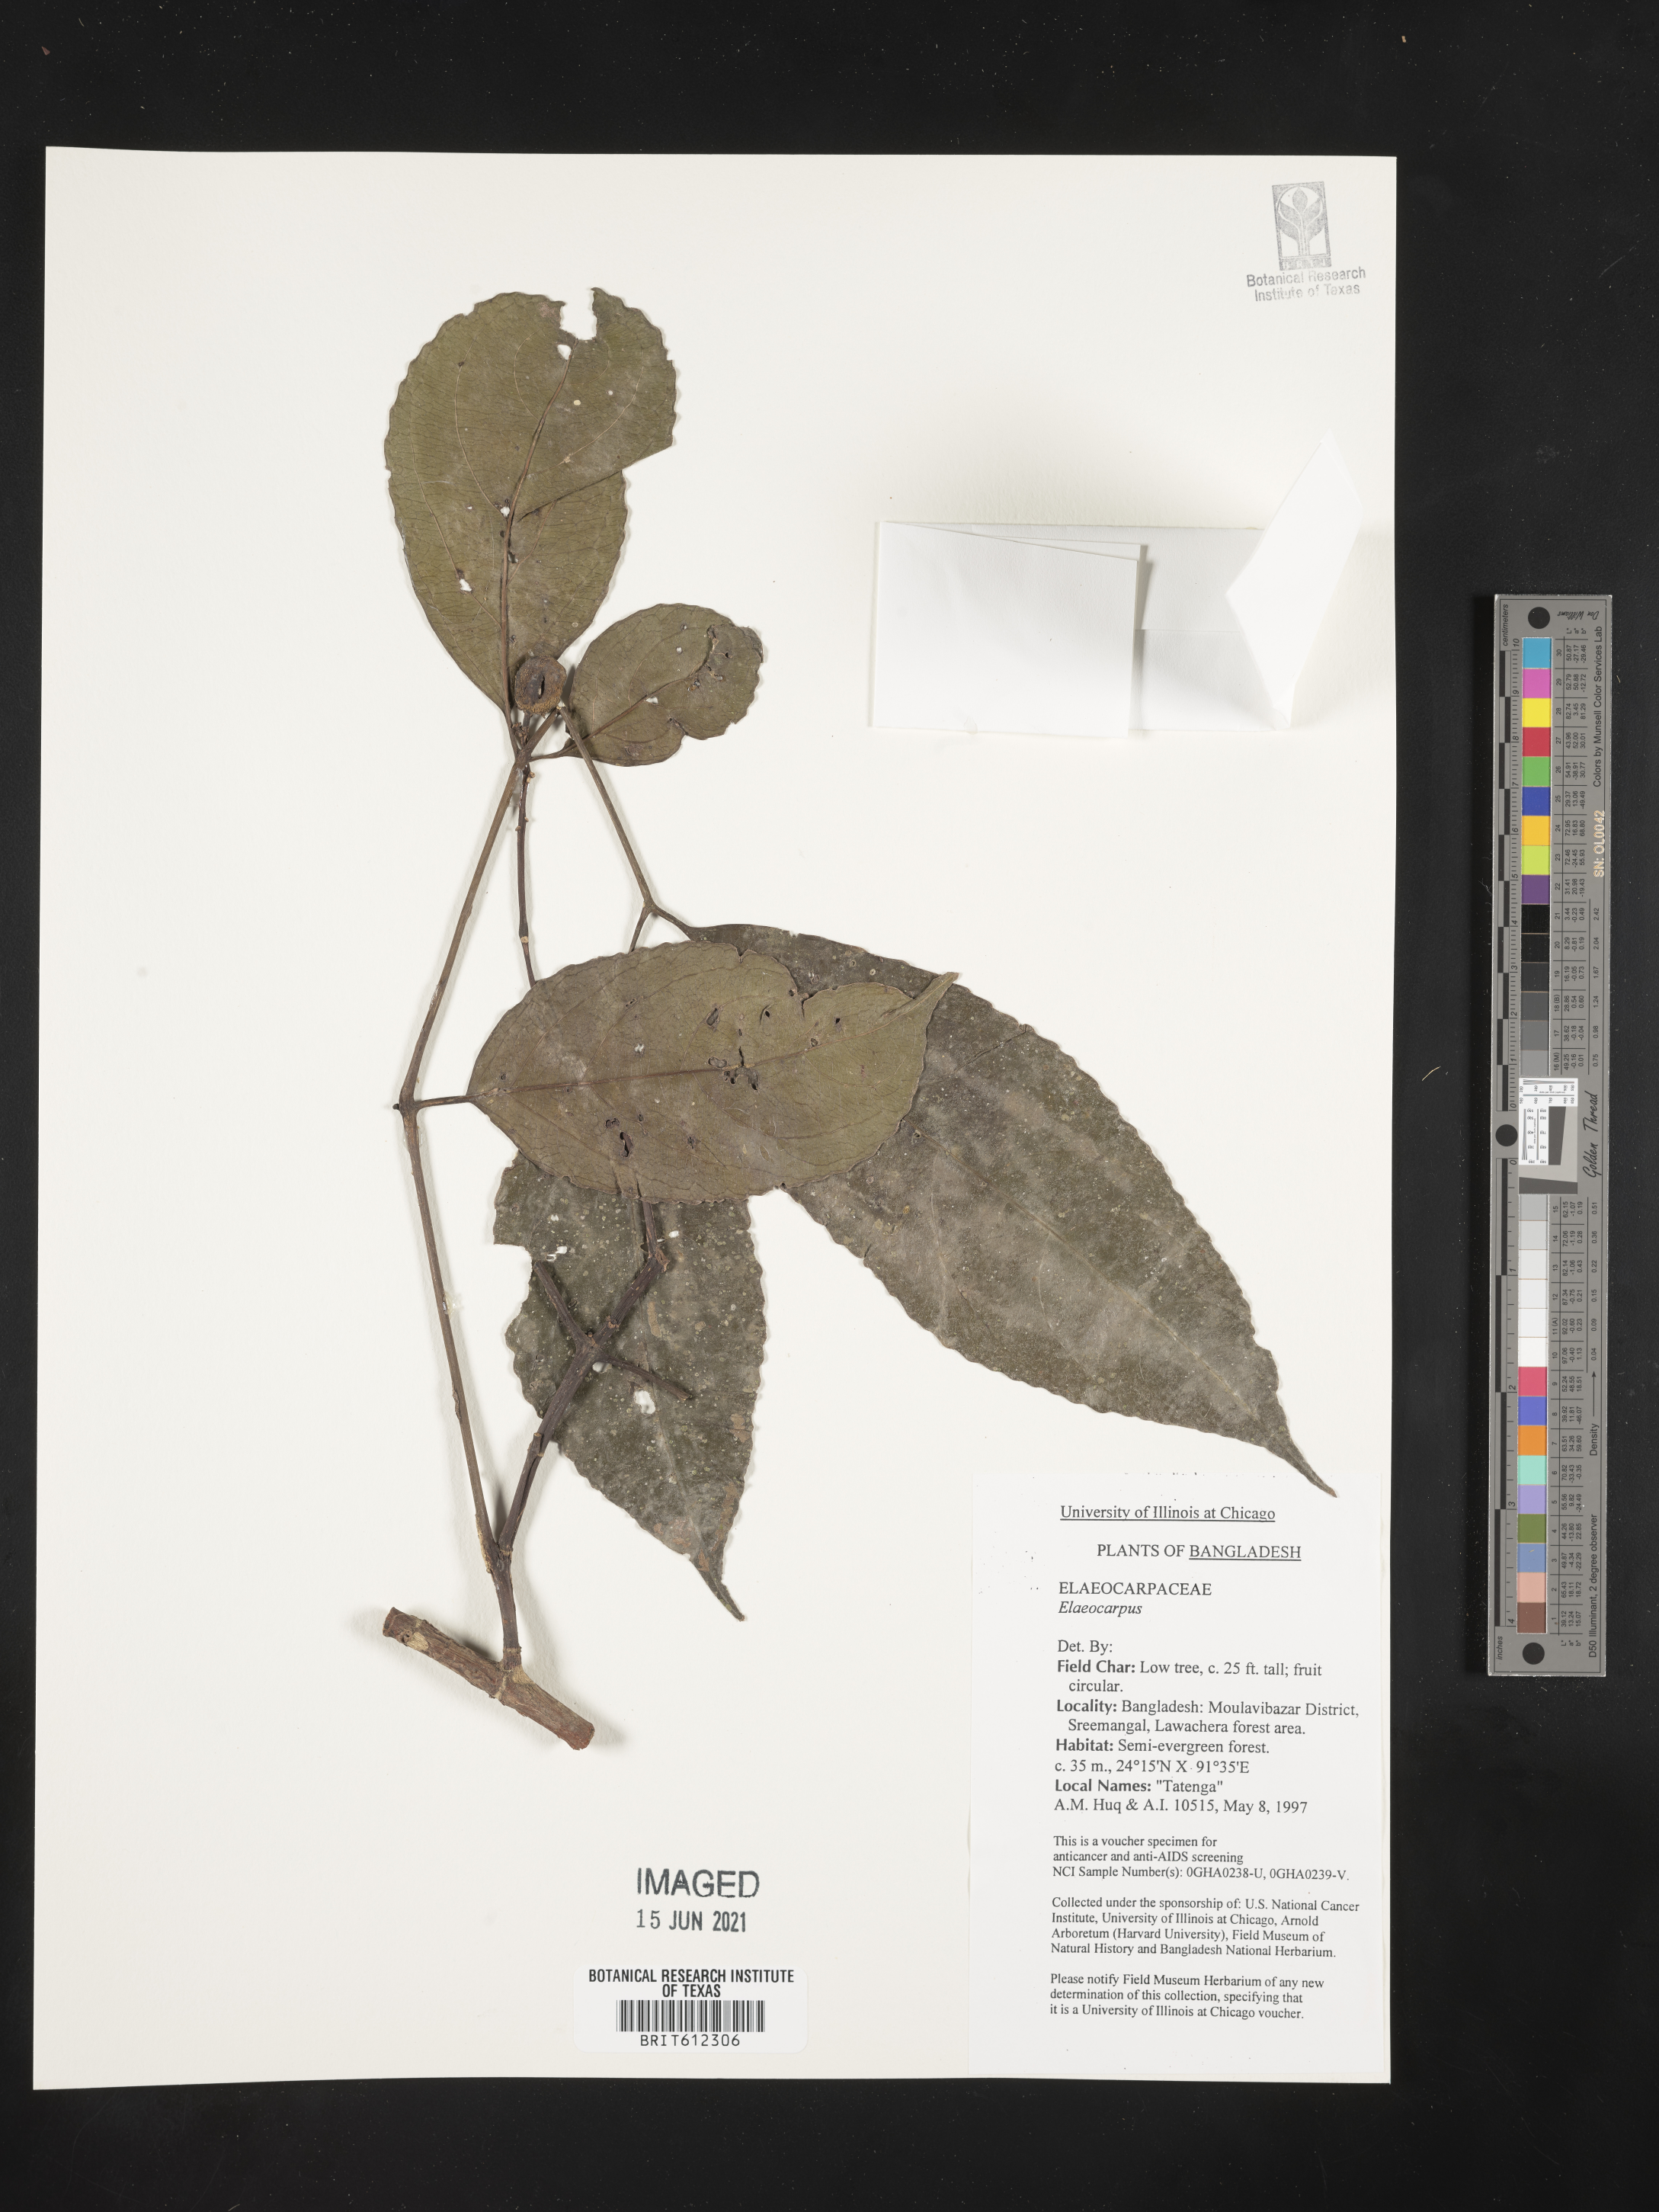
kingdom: Plantae
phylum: Tracheophyta
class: Magnoliopsida
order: Oxalidales
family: Elaeocarpaceae
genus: Elaeocarpus
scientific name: Elaeocarpus
